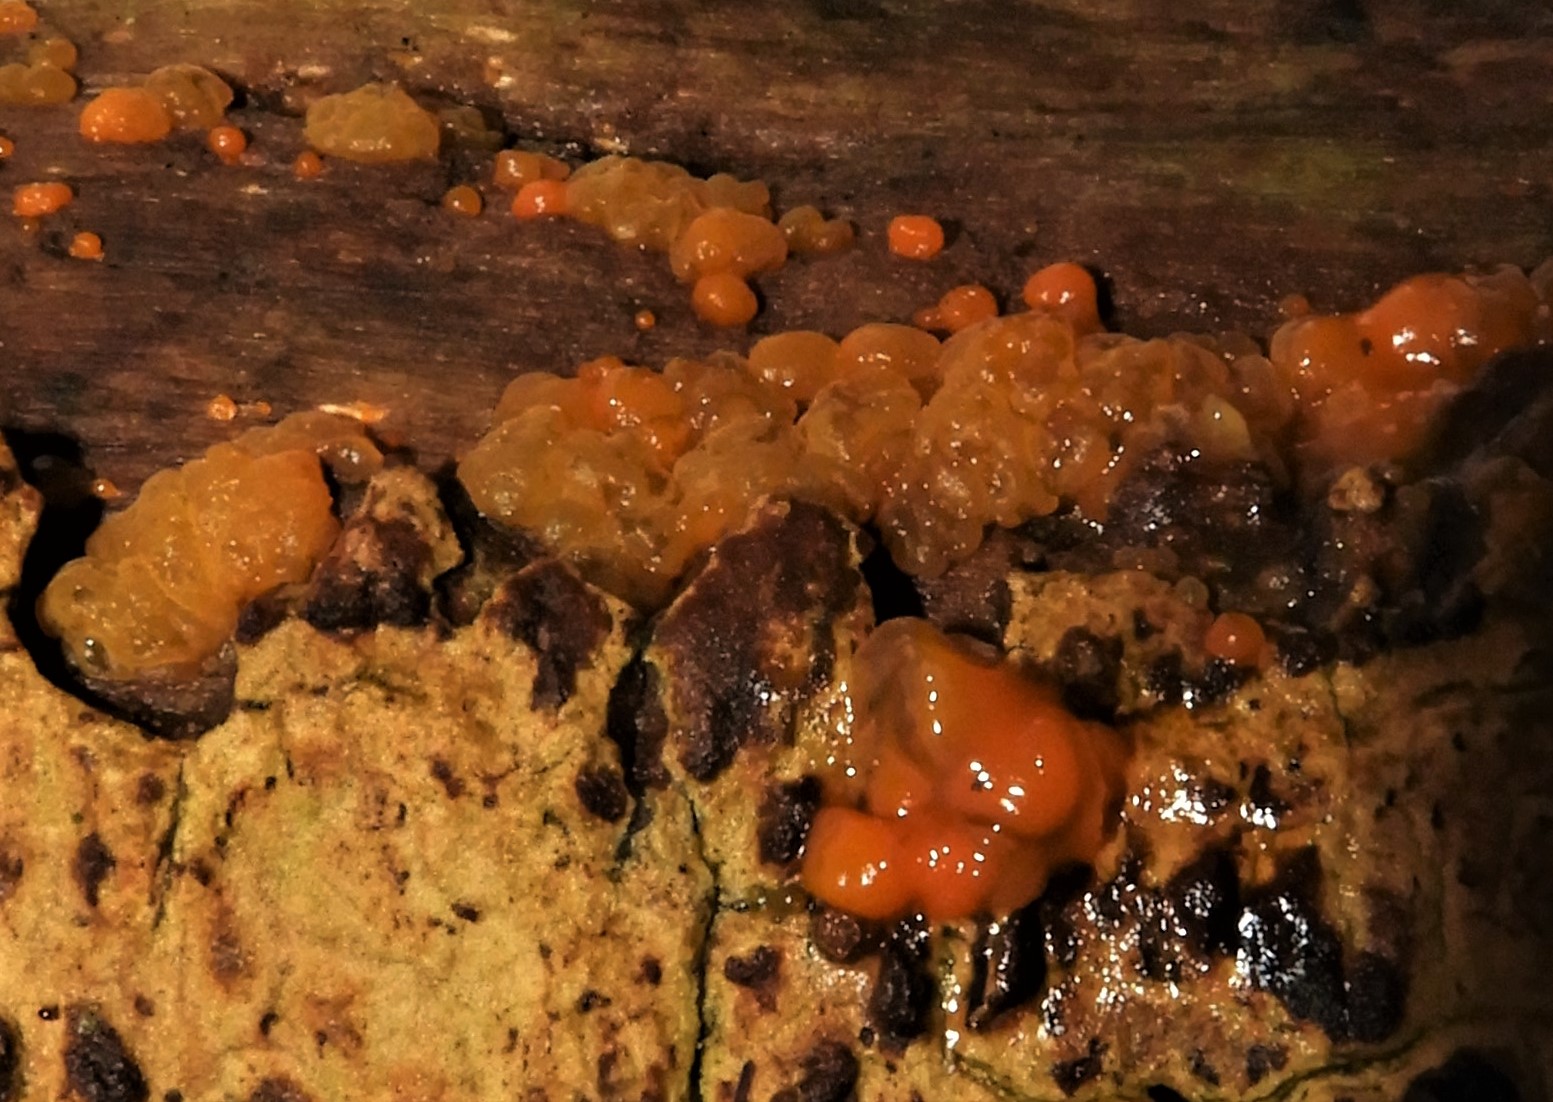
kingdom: Fungi
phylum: Basidiomycota
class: Dacrymycetes
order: Dacrymycetales
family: Dacrymycetaceae
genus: Dacrymyces
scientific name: Dacrymyces stillatus
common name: almindelig tåresvamp
